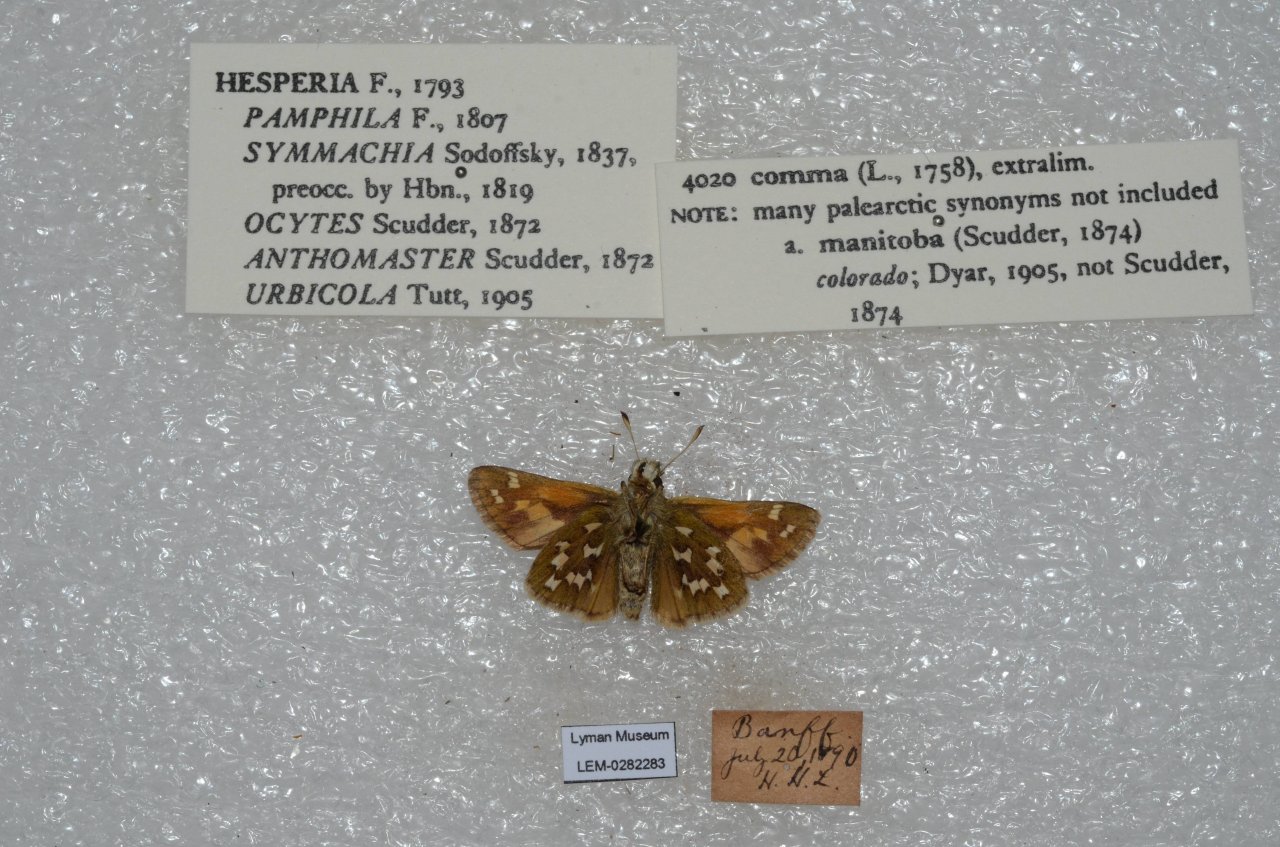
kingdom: Animalia
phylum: Arthropoda
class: Insecta
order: Lepidoptera
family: Hesperiidae
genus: Hesperia
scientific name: Hesperia comma
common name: Common Branded Skipper
